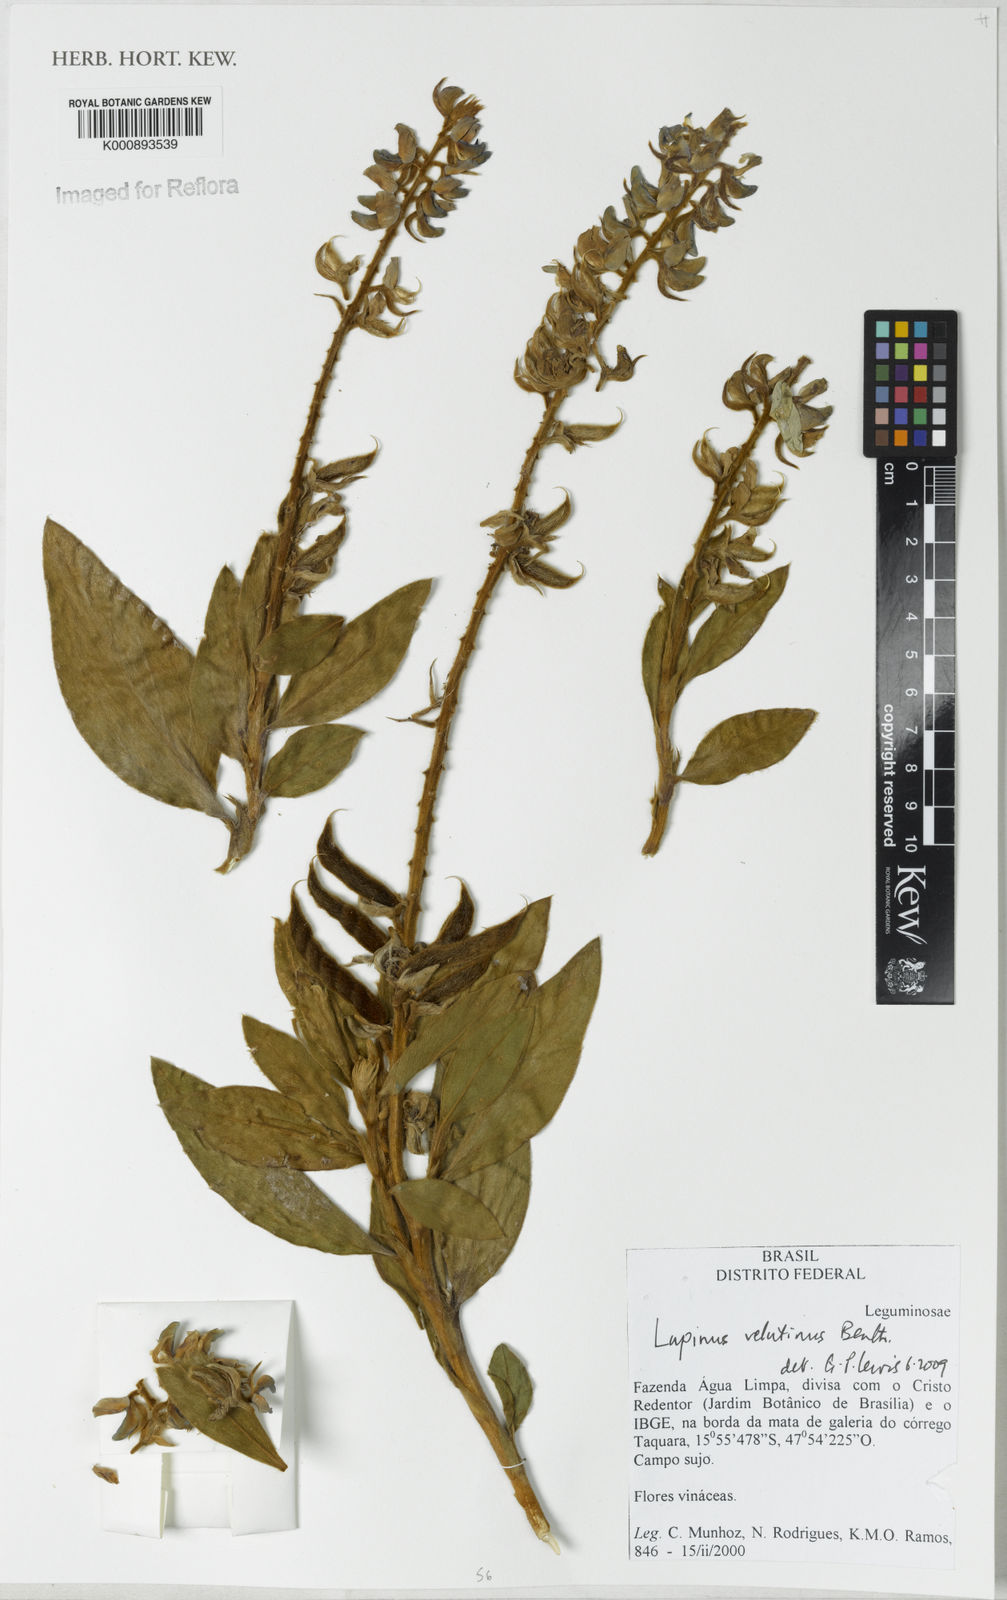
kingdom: Plantae
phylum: Tracheophyta
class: Magnoliopsida
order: Fabales
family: Fabaceae
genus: Lupinus
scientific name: Lupinus velutinus
